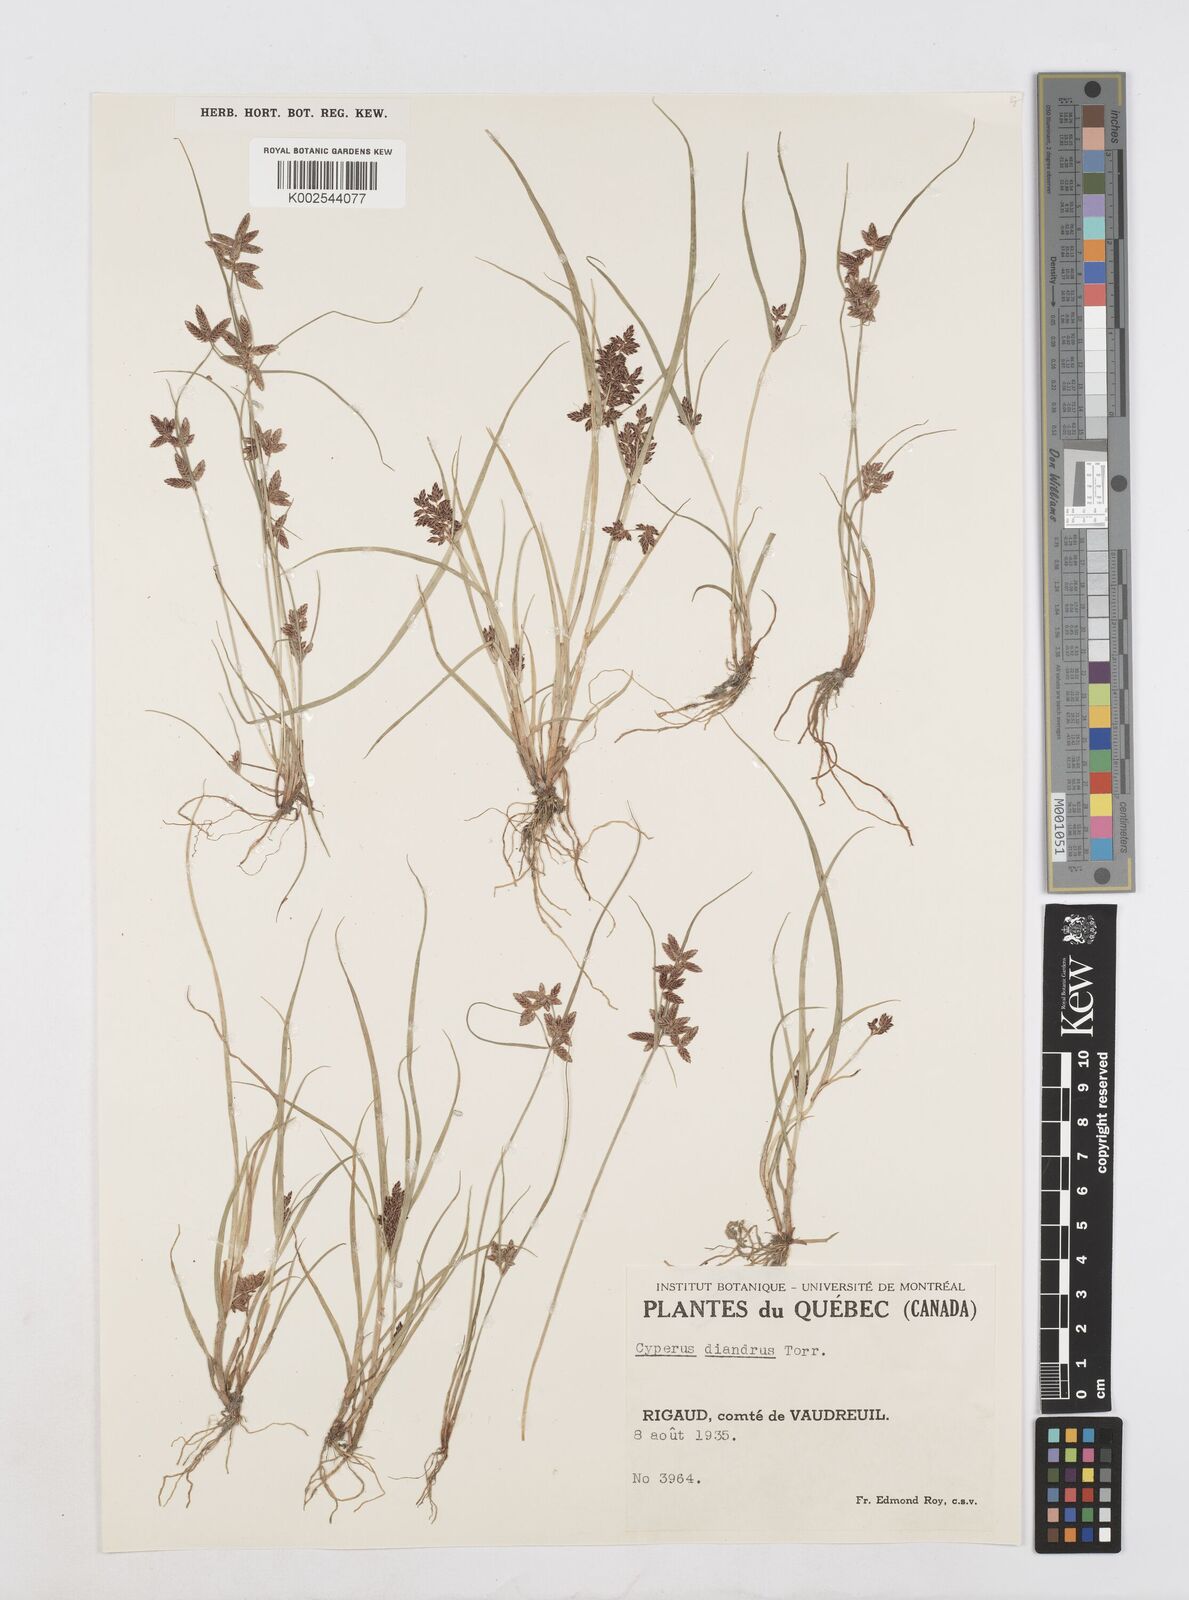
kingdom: Plantae
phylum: Tracheophyta
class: Liliopsida
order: Poales
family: Cyperaceae
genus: Cyperus
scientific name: Cyperus diandrus
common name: Low cyperus
